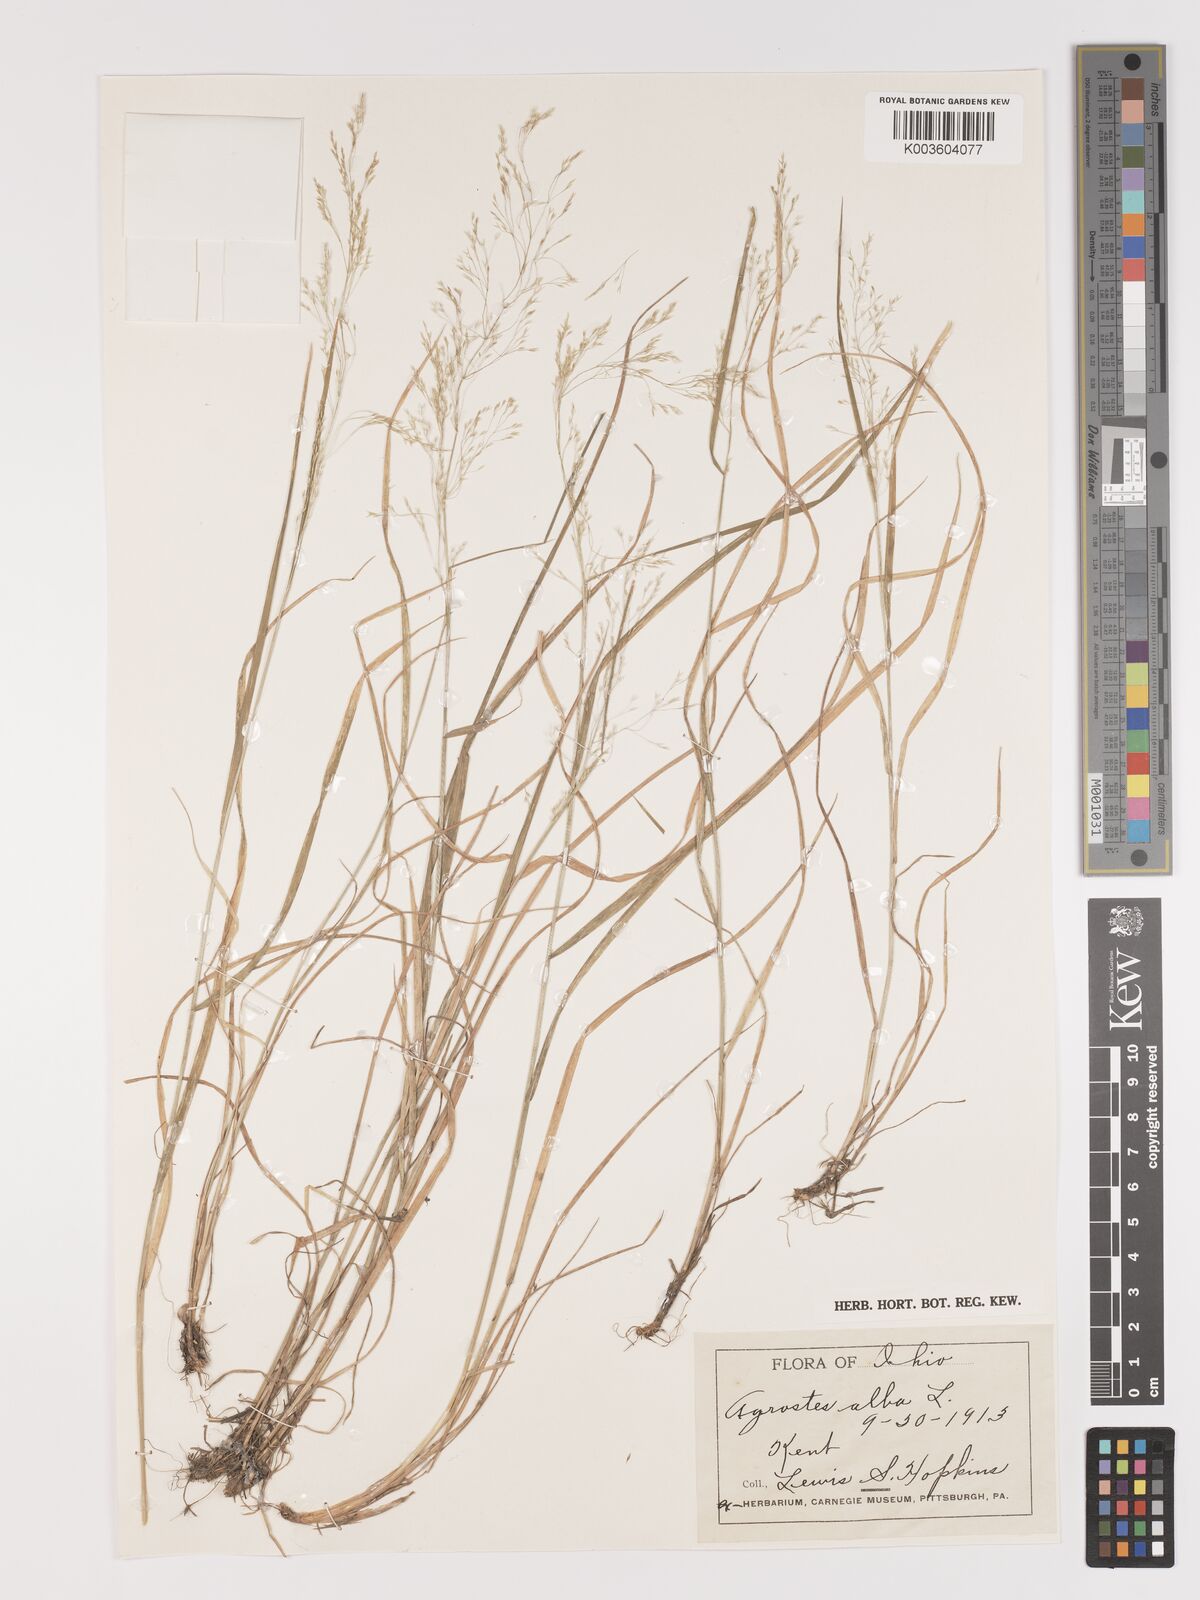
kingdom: Plantae
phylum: Tracheophyta
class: Liliopsida
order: Poales
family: Poaceae
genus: Agrostis
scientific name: Agrostis gigantea
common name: Black bent
